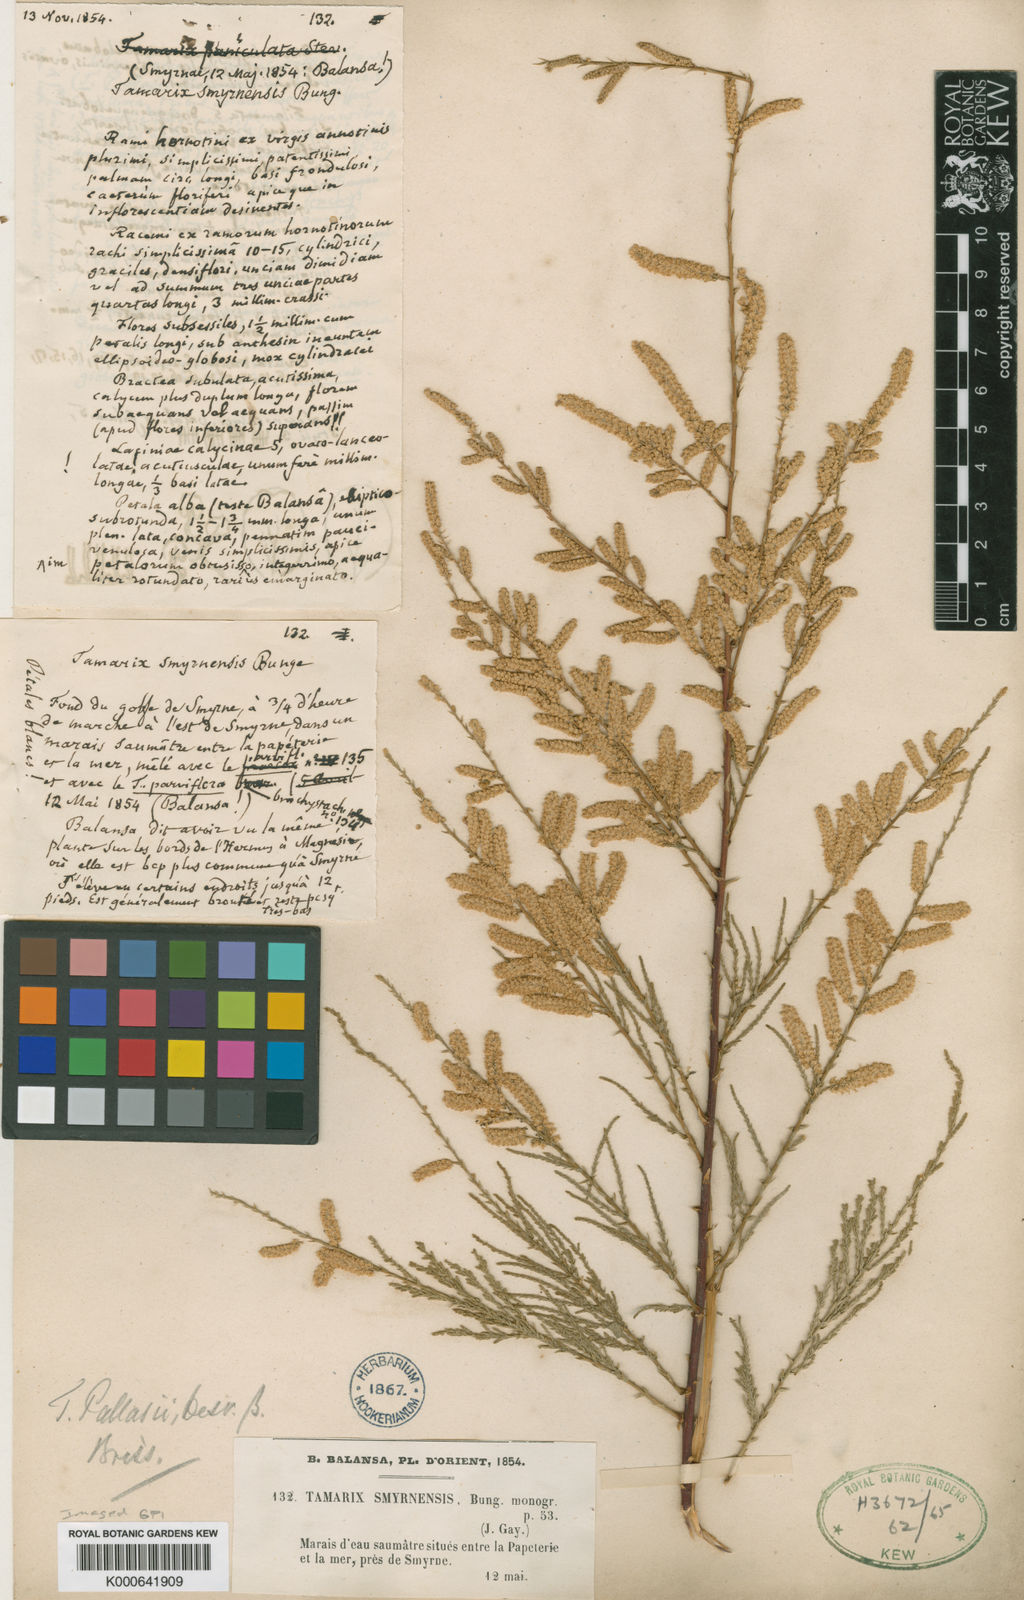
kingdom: Plantae
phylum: Tracheophyta
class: Magnoliopsida
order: Caryophyllales
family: Tamaricaceae
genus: Tamarix
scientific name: Tamarix smyrnensis
